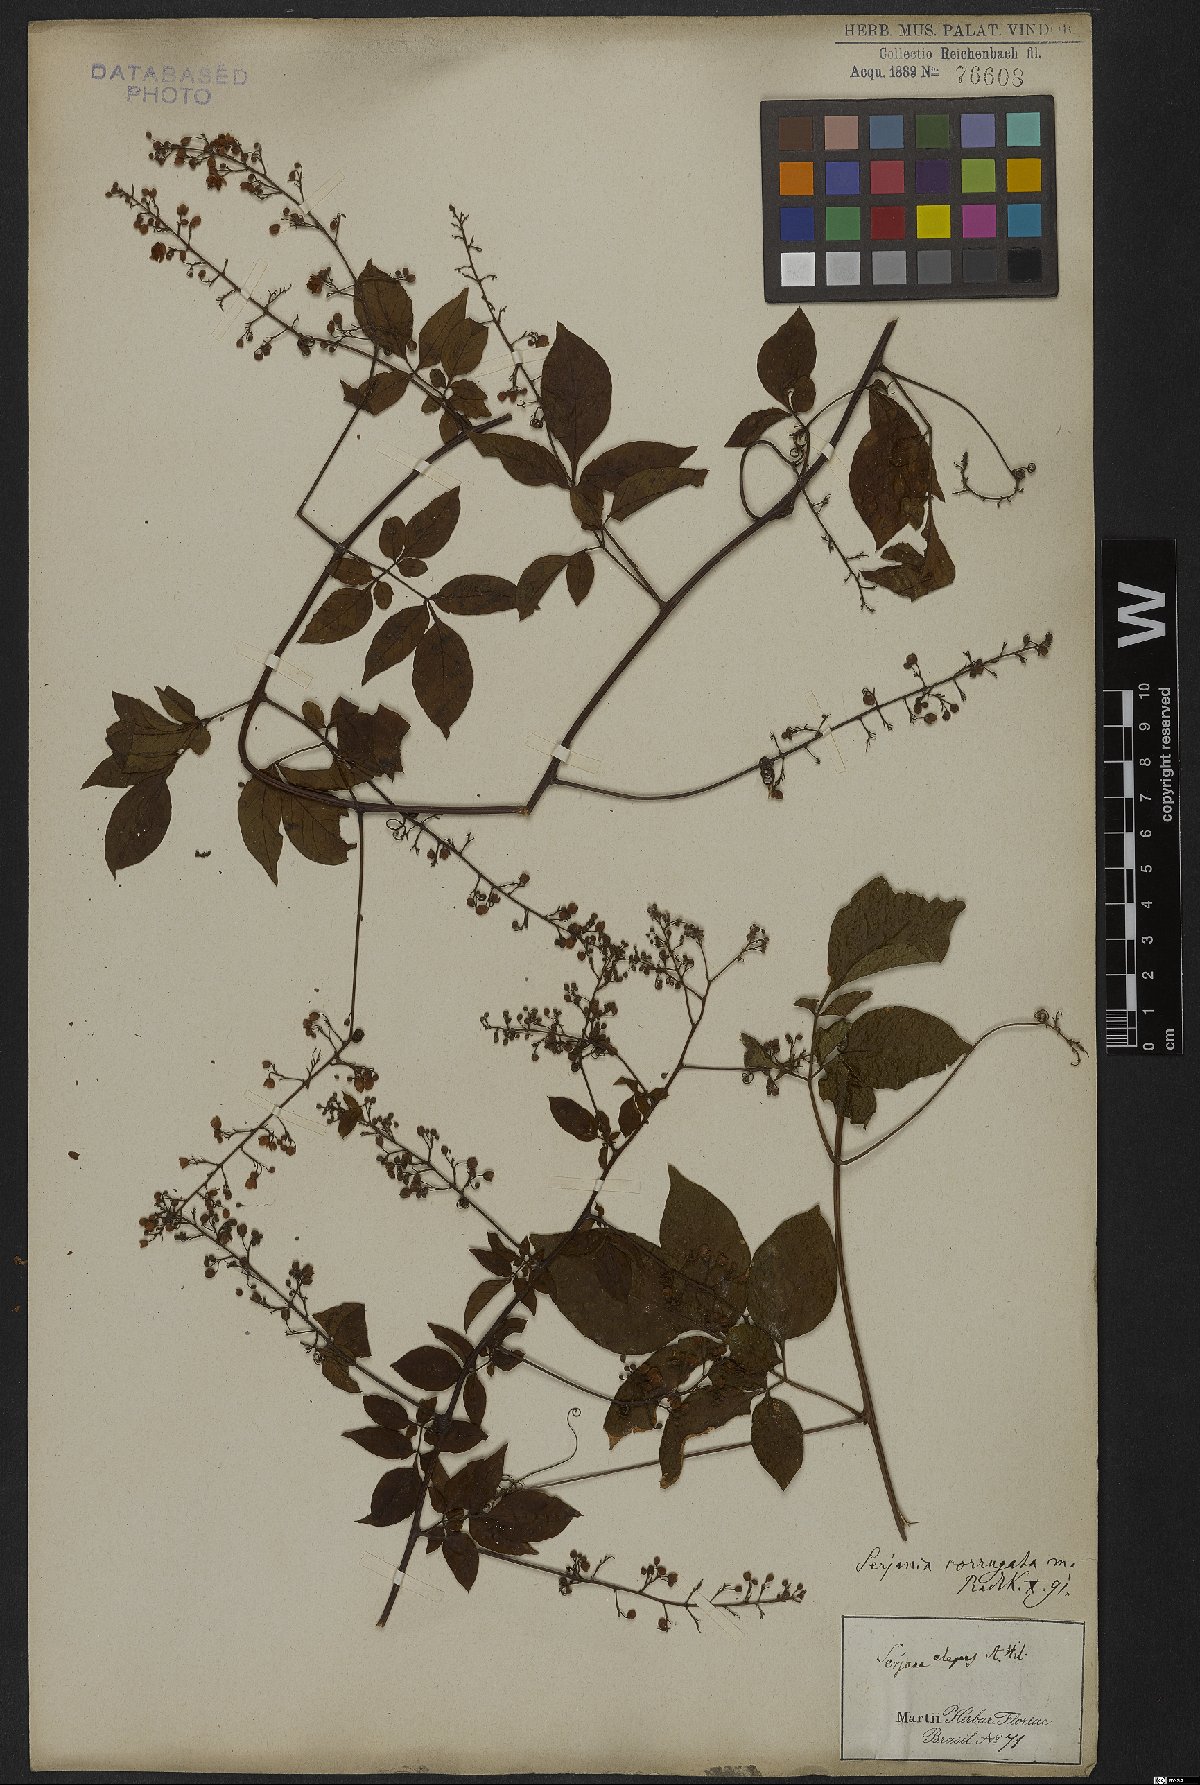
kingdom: Plantae
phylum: Tracheophyta
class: Magnoliopsida
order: Sapindales
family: Sapindaceae
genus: Serjania
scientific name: Serjania corrugata
